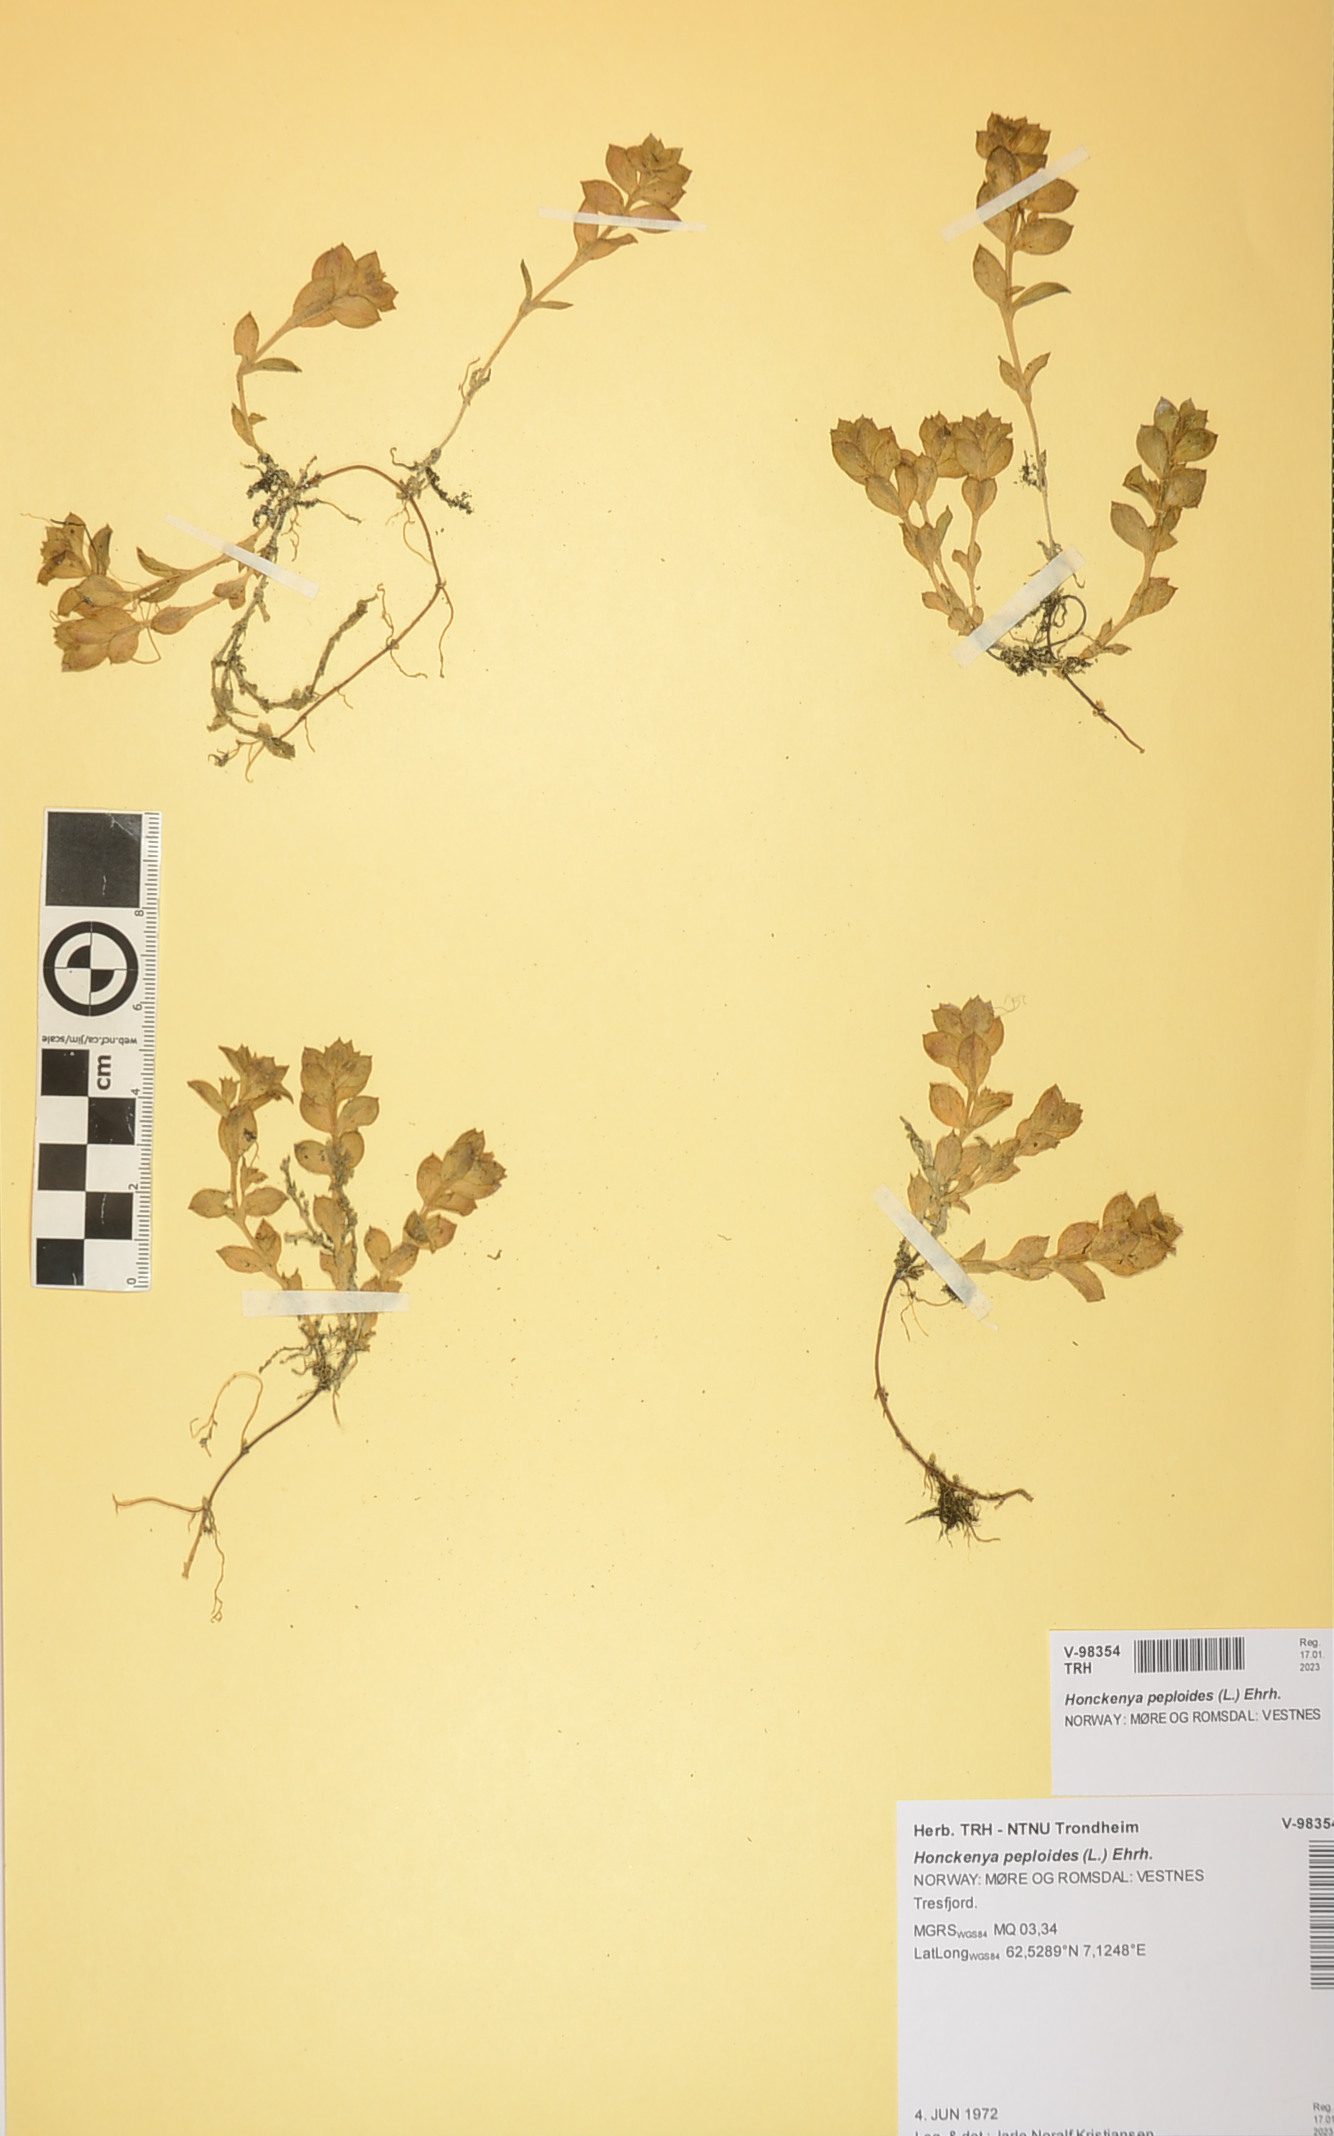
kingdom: Plantae
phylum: Tracheophyta
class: Magnoliopsida
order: Caryophyllales
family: Caryophyllaceae
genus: Honckenya
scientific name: Honckenya peploides
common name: Sea sandwort
